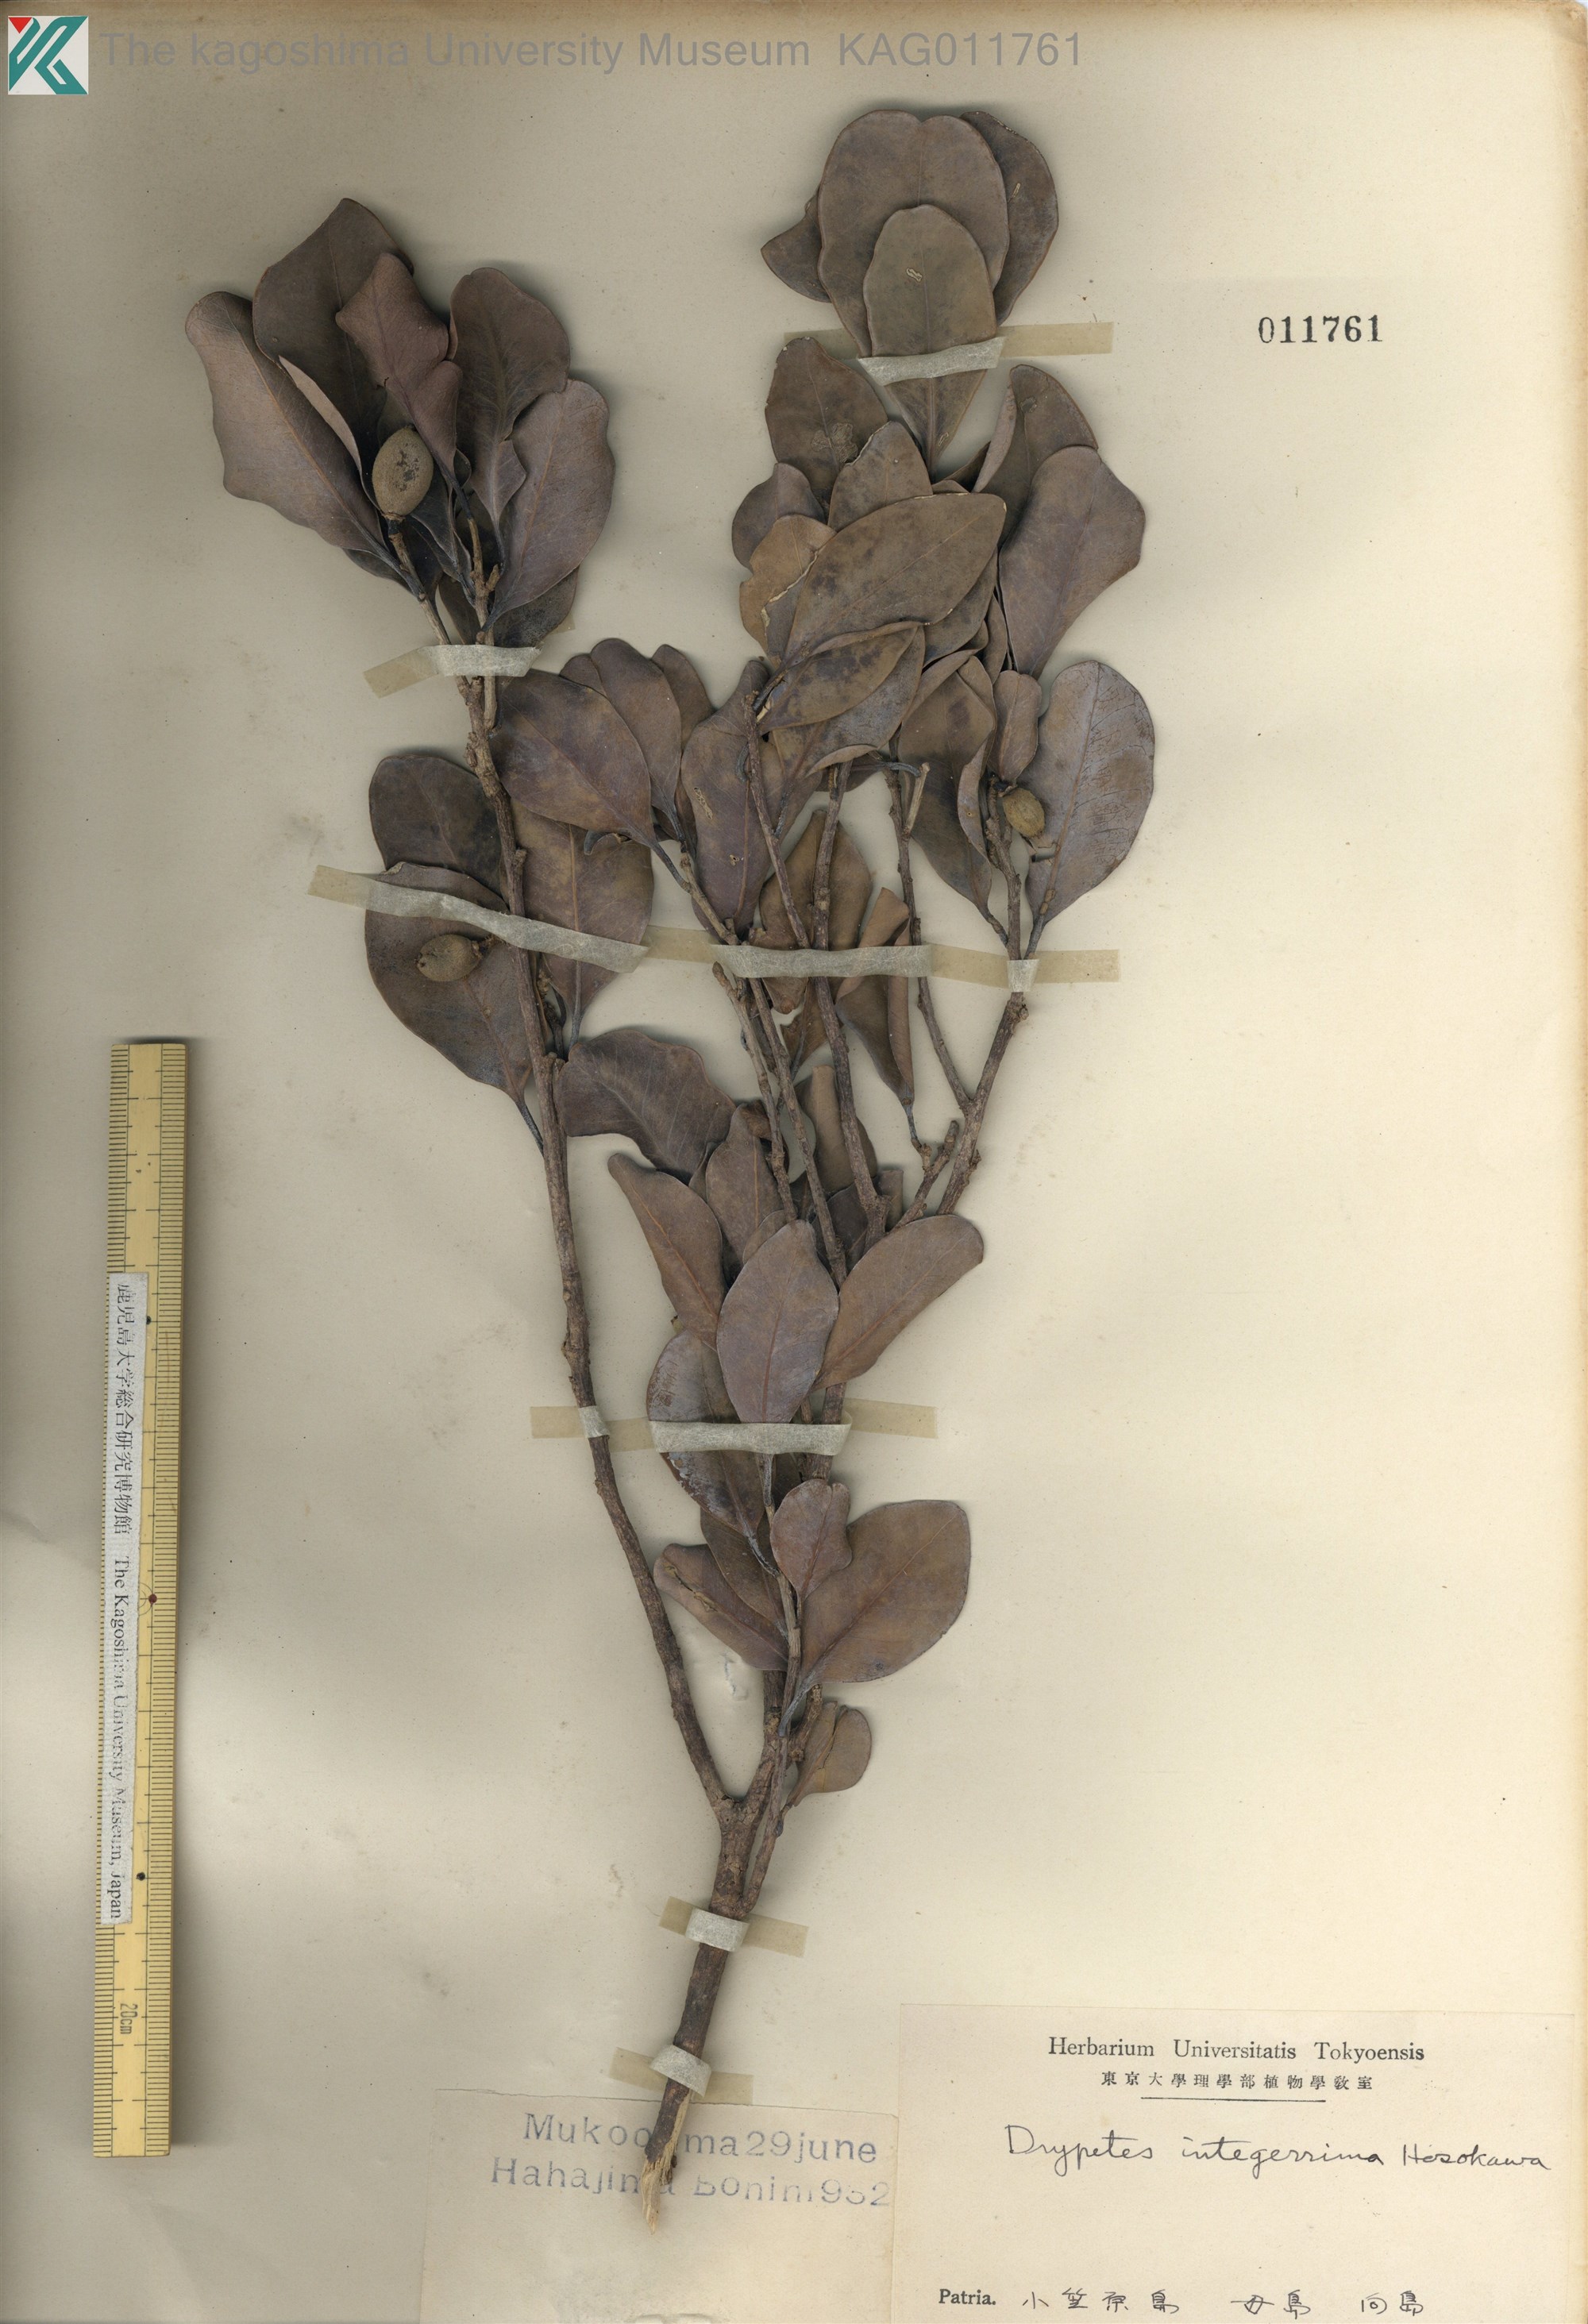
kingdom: Plantae
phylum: Tracheophyta
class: Magnoliopsida
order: Malpighiales
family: Putranjivaceae
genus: Drypetes
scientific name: Drypetes integerrima
